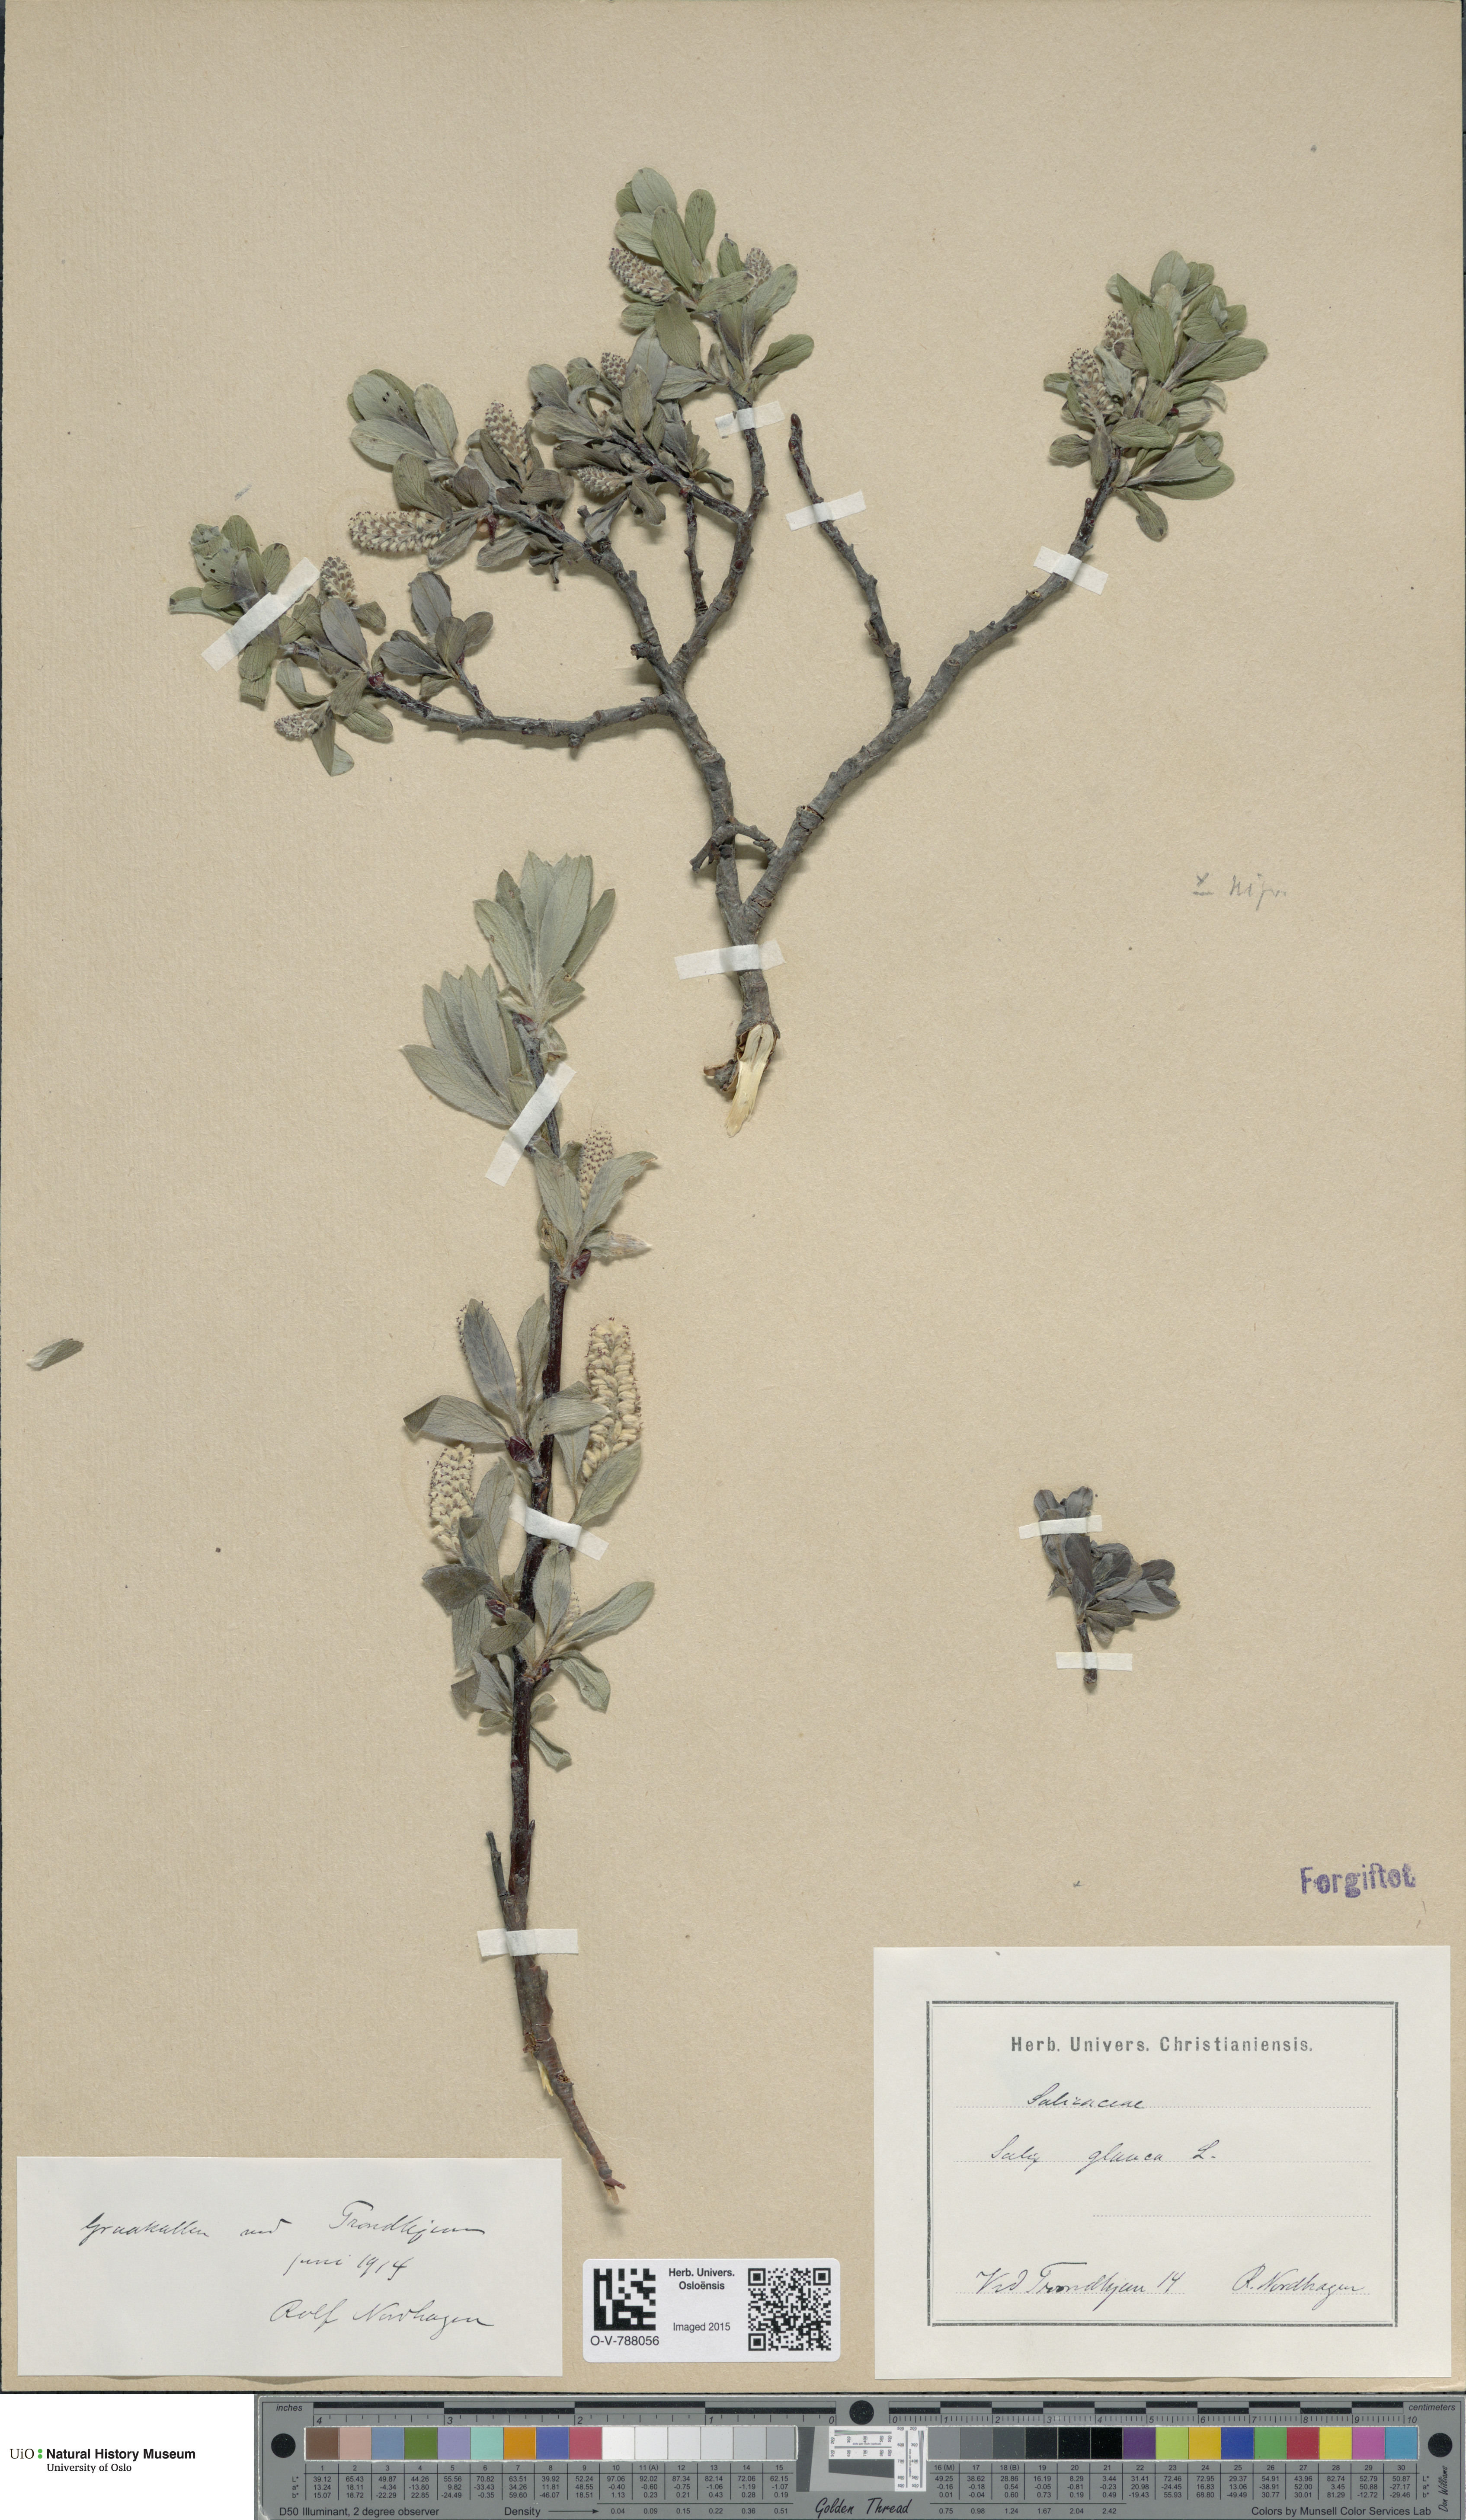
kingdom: Plantae
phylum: Tracheophyta
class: Magnoliopsida
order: Malpighiales
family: Salicaceae
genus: Salix
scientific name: Salix glauca
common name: Glaucous willow
